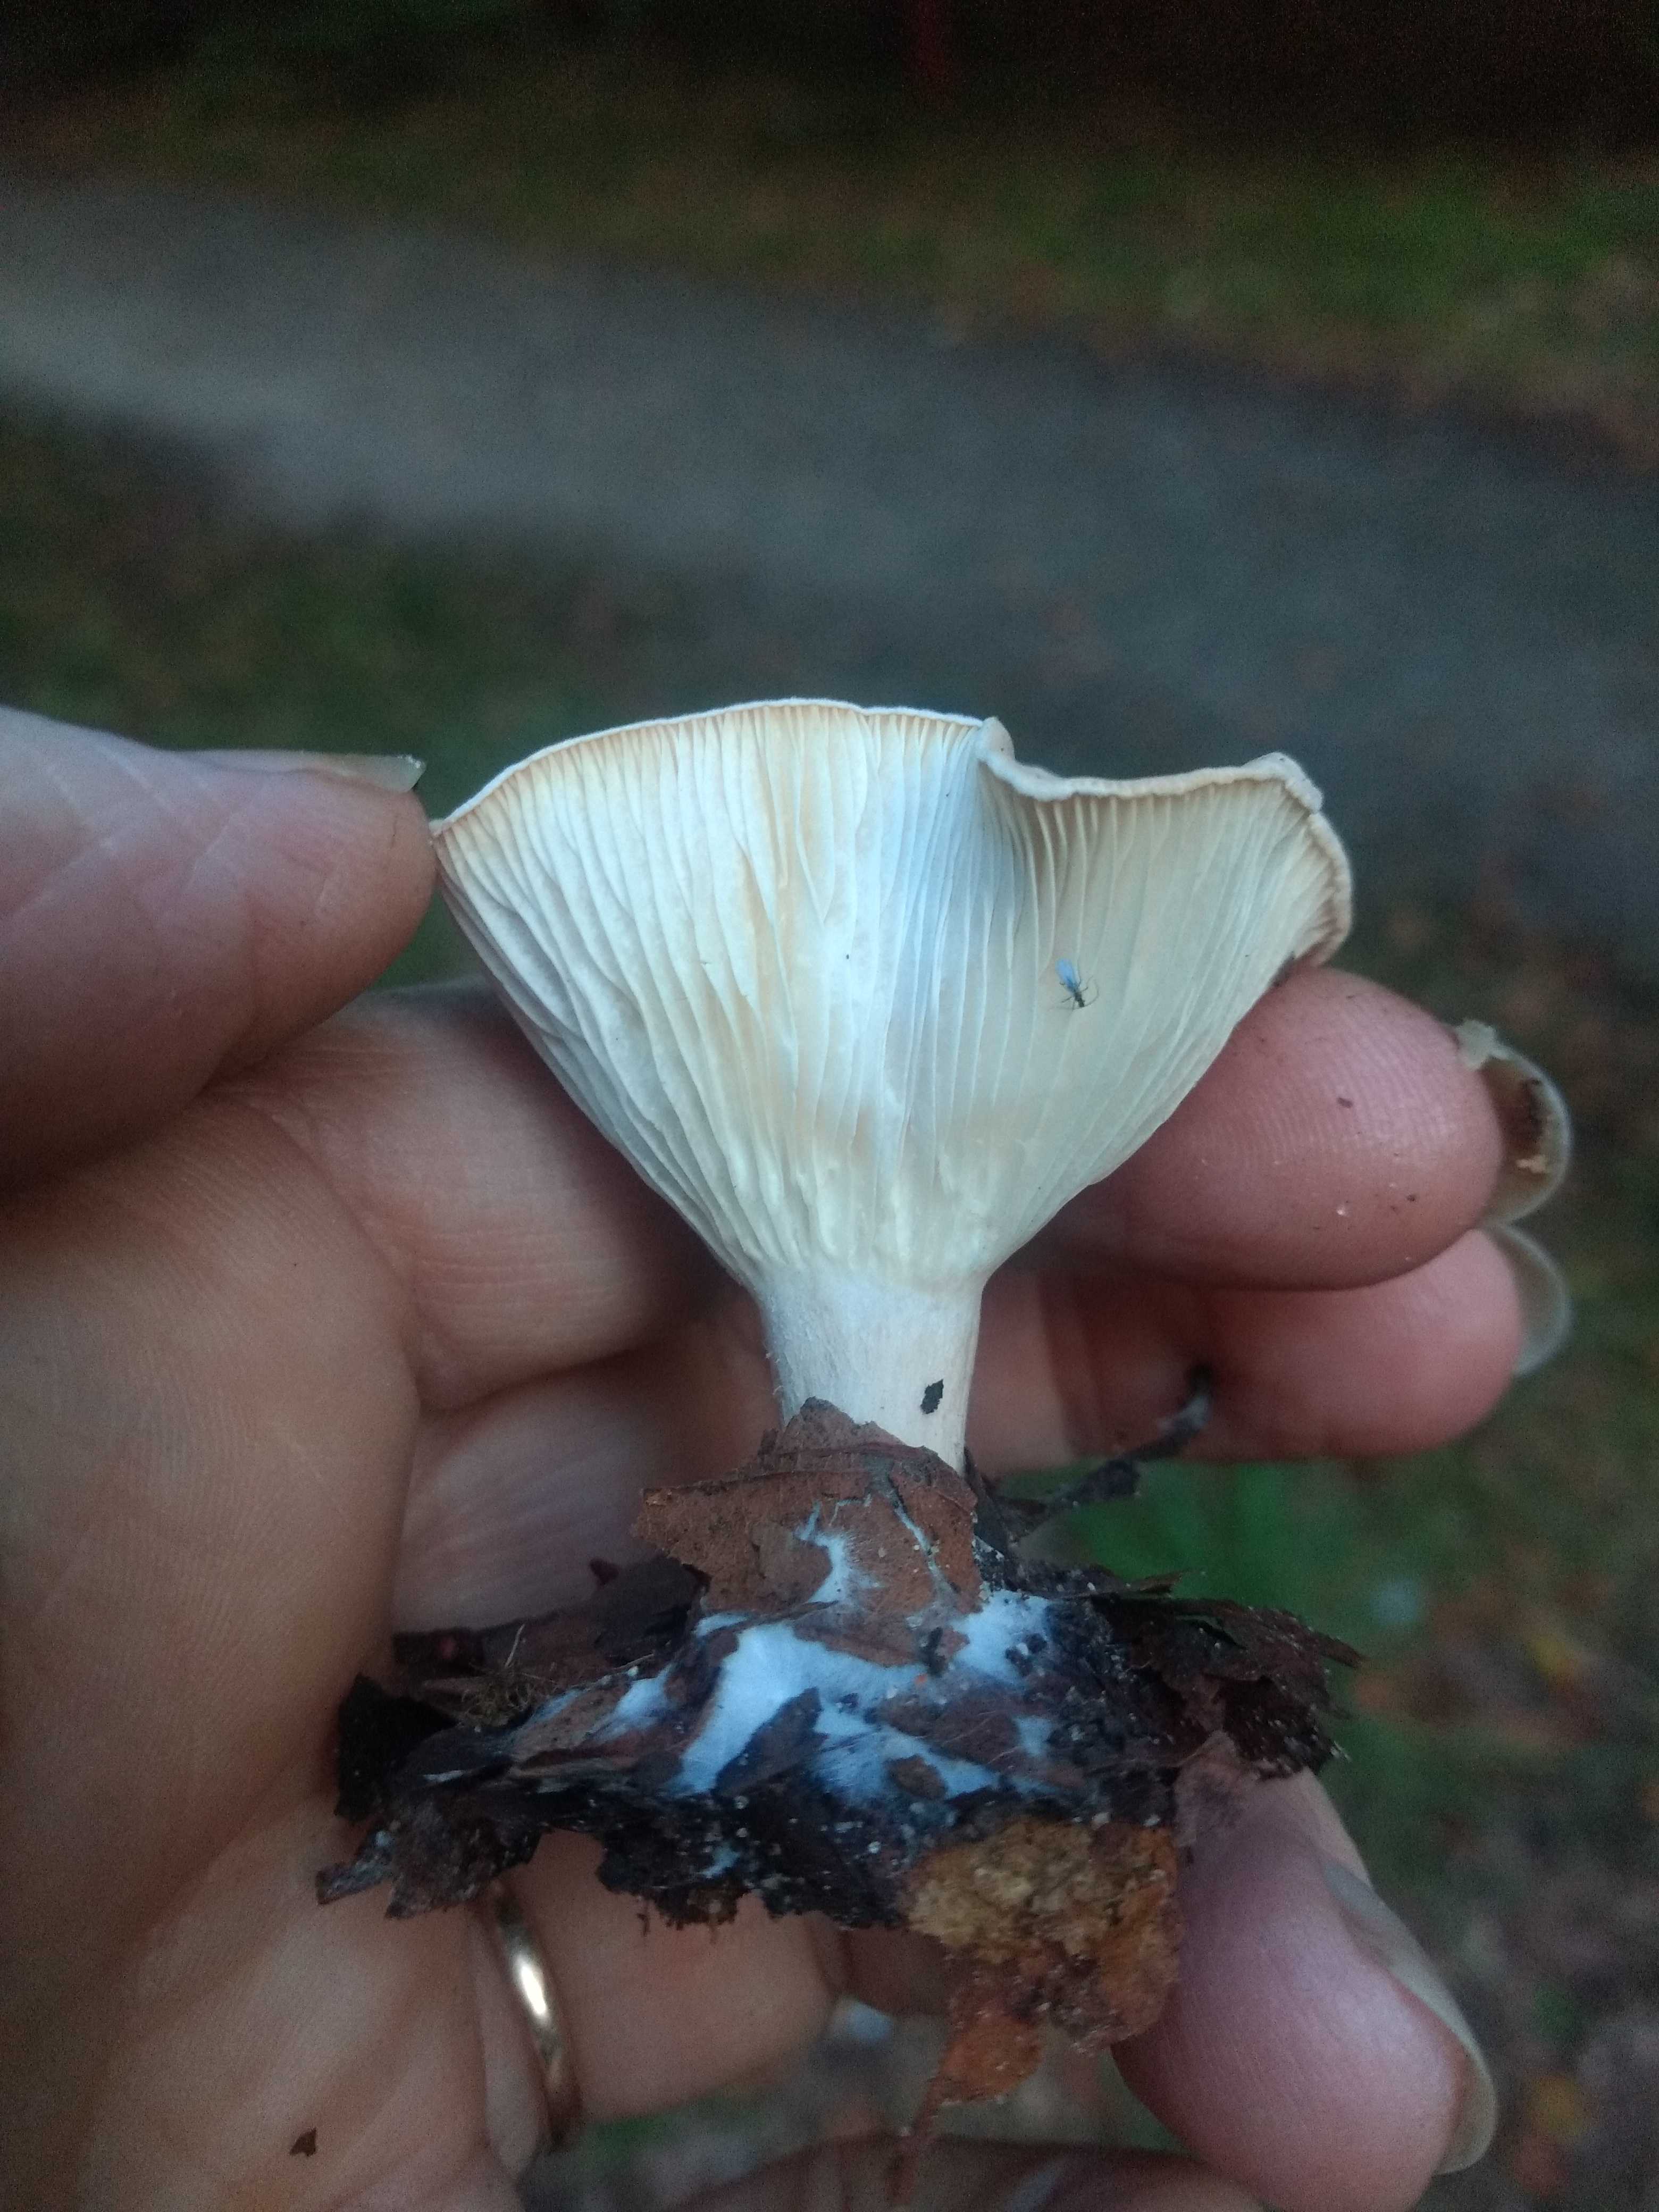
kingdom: Fungi
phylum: Basidiomycota
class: Agaricomycetes
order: Agaricales
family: Tricholomataceae
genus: Infundibulicybe
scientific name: Infundibulicybe gibba
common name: almindelig tragthat
